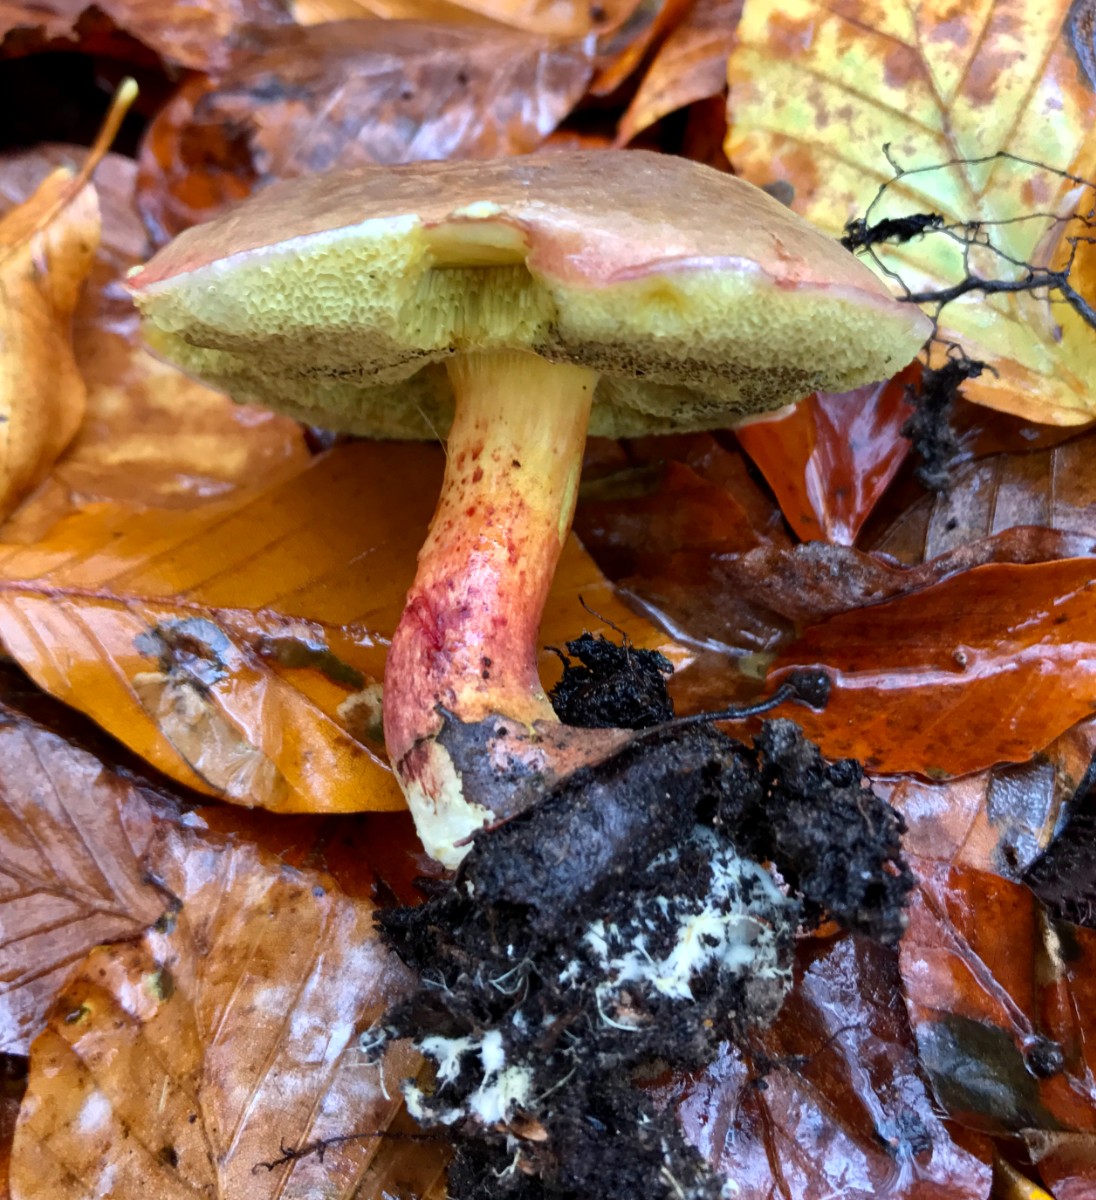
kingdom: Fungi
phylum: Basidiomycota
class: Agaricomycetes
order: Boletales
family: Boletaceae
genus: Xerocomellus
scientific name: Xerocomellus pruinatus
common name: dugget rørhat
